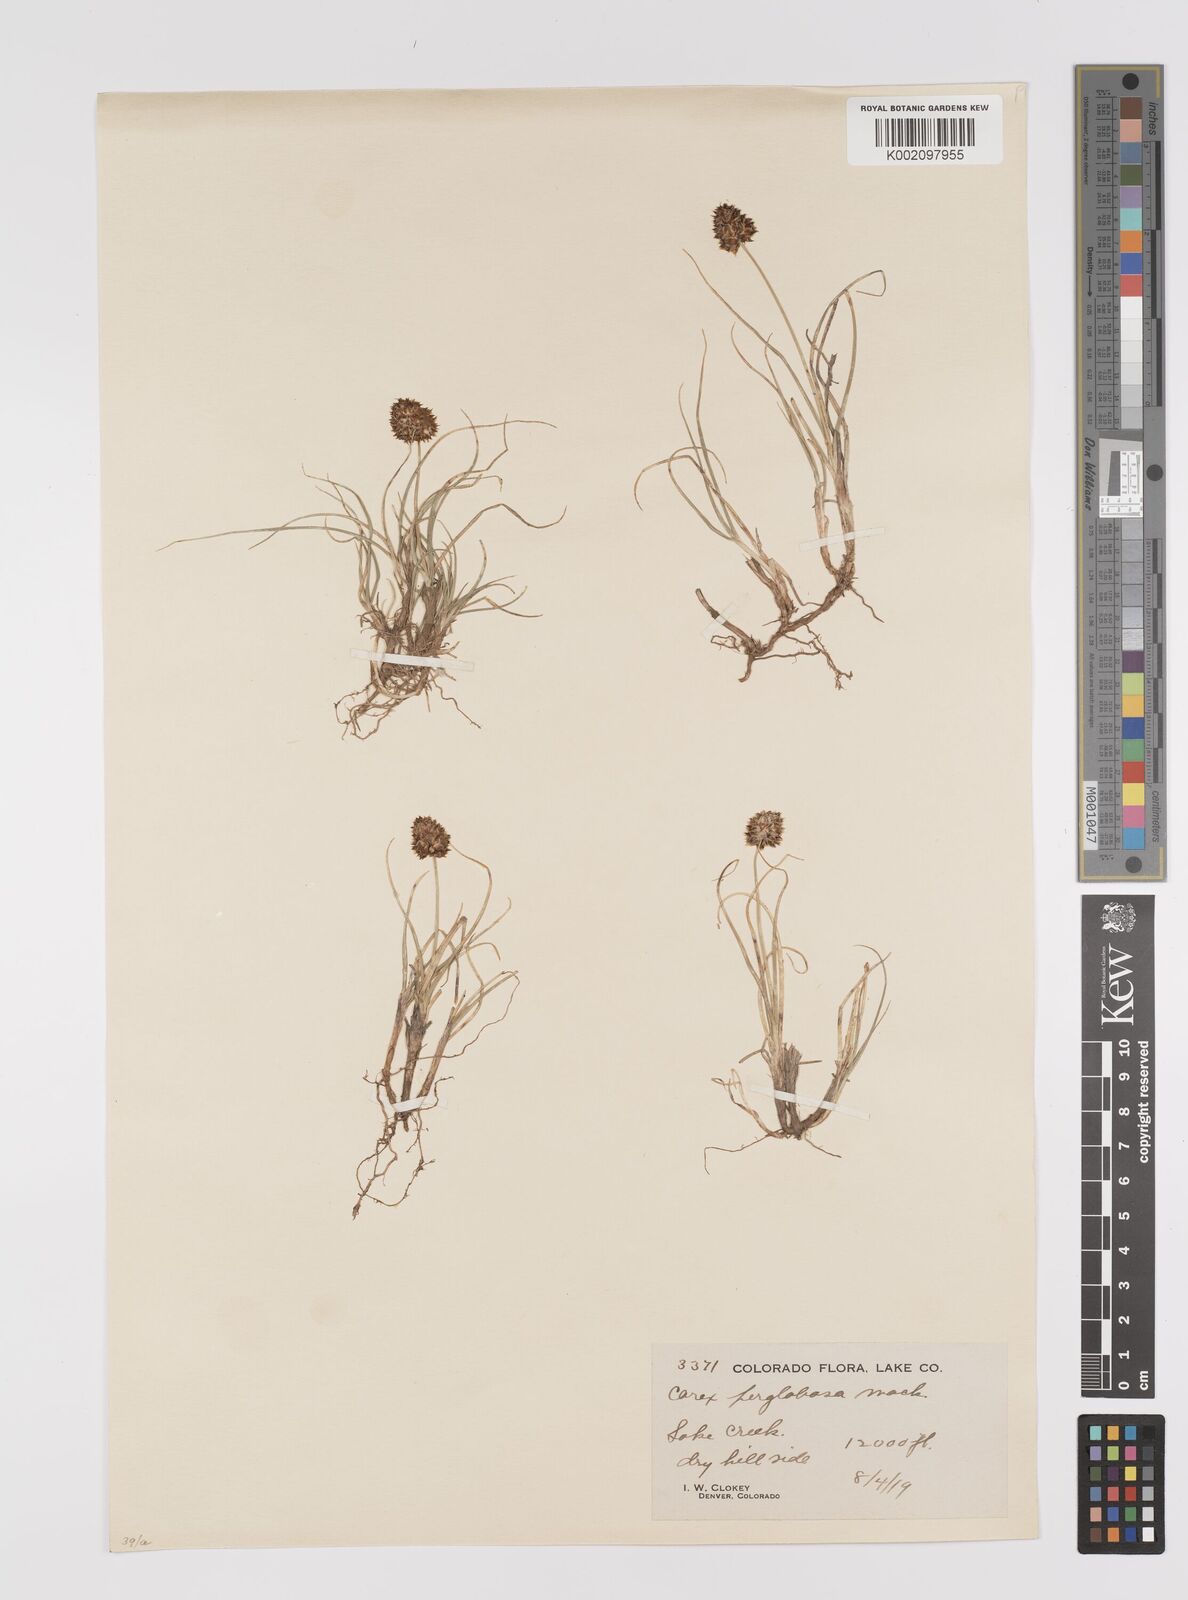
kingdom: Plantae
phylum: Tracheophyta
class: Liliopsida
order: Poales
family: Cyperaceae
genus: Carex
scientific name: Carex perglobosa
